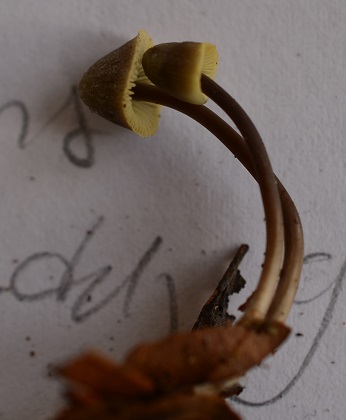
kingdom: Fungi
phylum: Basidiomycota
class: Agaricomycetes
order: Agaricales
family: Mycenaceae
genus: Mycena
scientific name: Mycena flavescens
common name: grågul huesvamp
